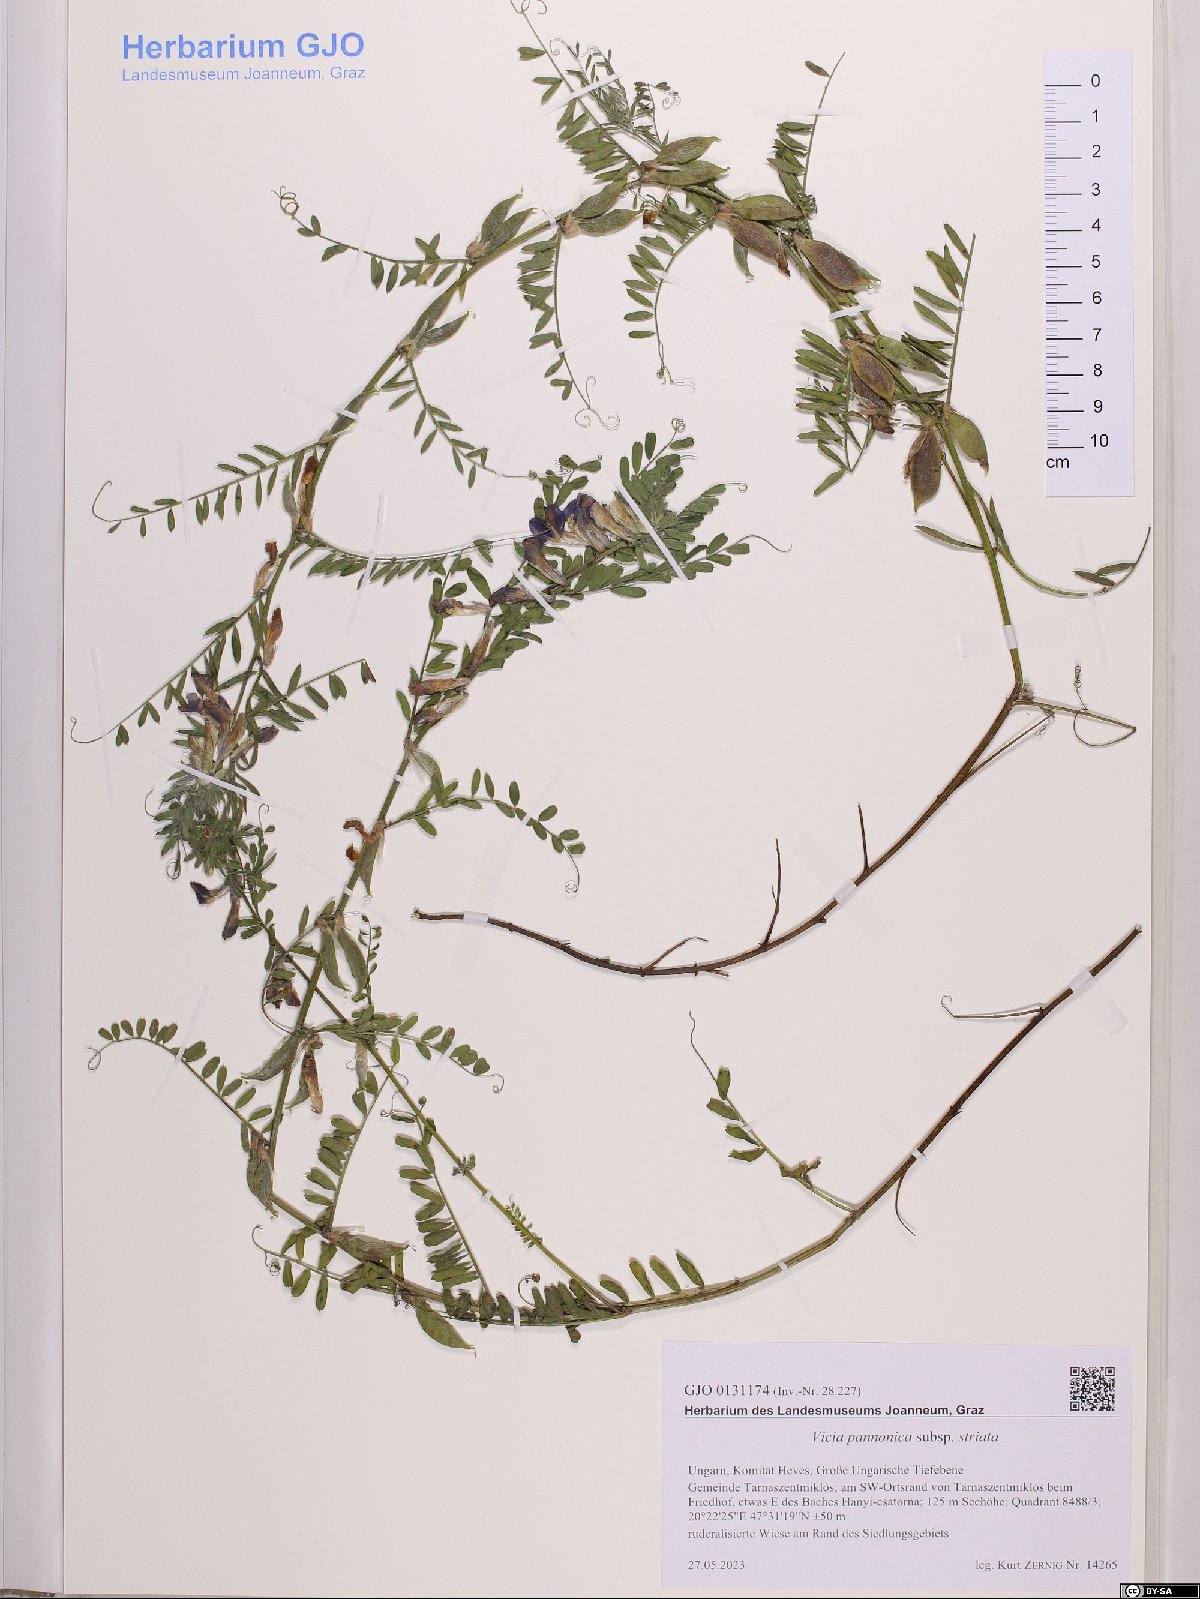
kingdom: Plantae
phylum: Tracheophyta
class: Magnoliopsida
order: Fabales
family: Fabaceae
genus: Vicia
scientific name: Vicia pannonica
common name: Hungarian vetch
